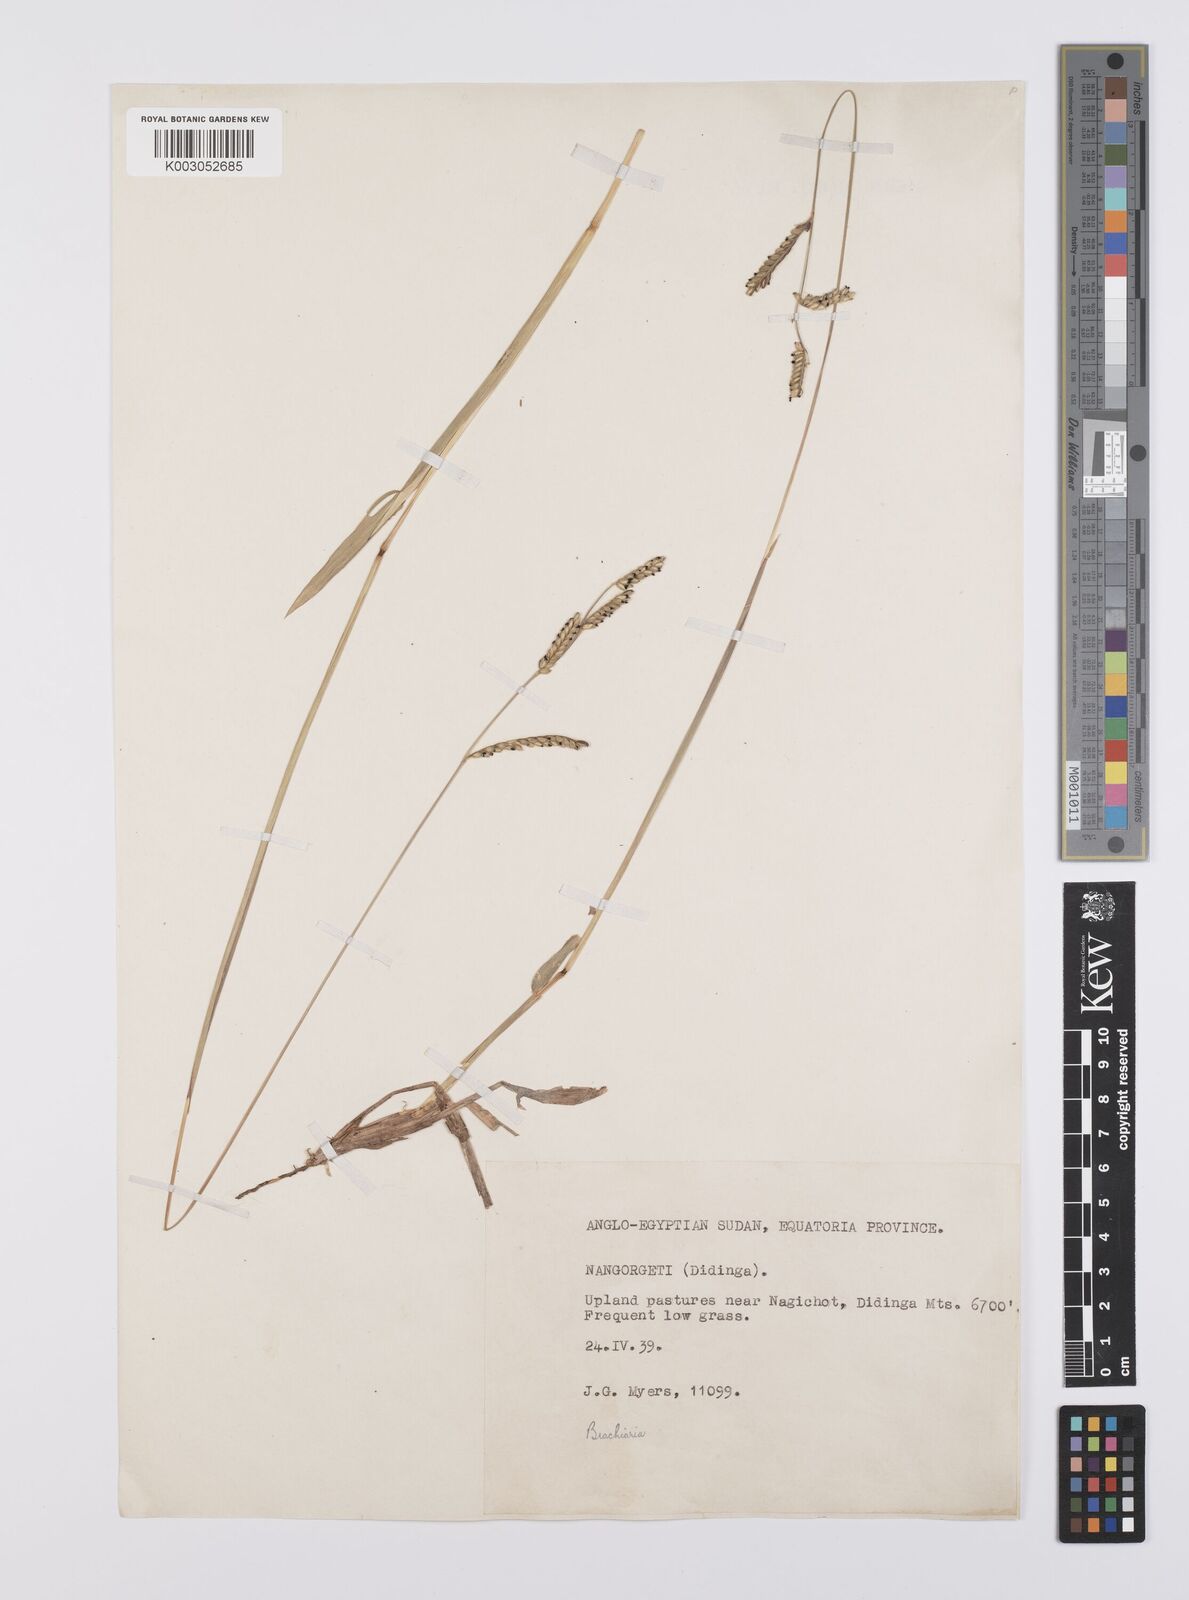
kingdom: Plantae
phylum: Tracheophyta
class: Liliopsida
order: Poales
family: Poaceae
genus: Urochloa
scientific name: Urochloa jubata
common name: Buffalograss
